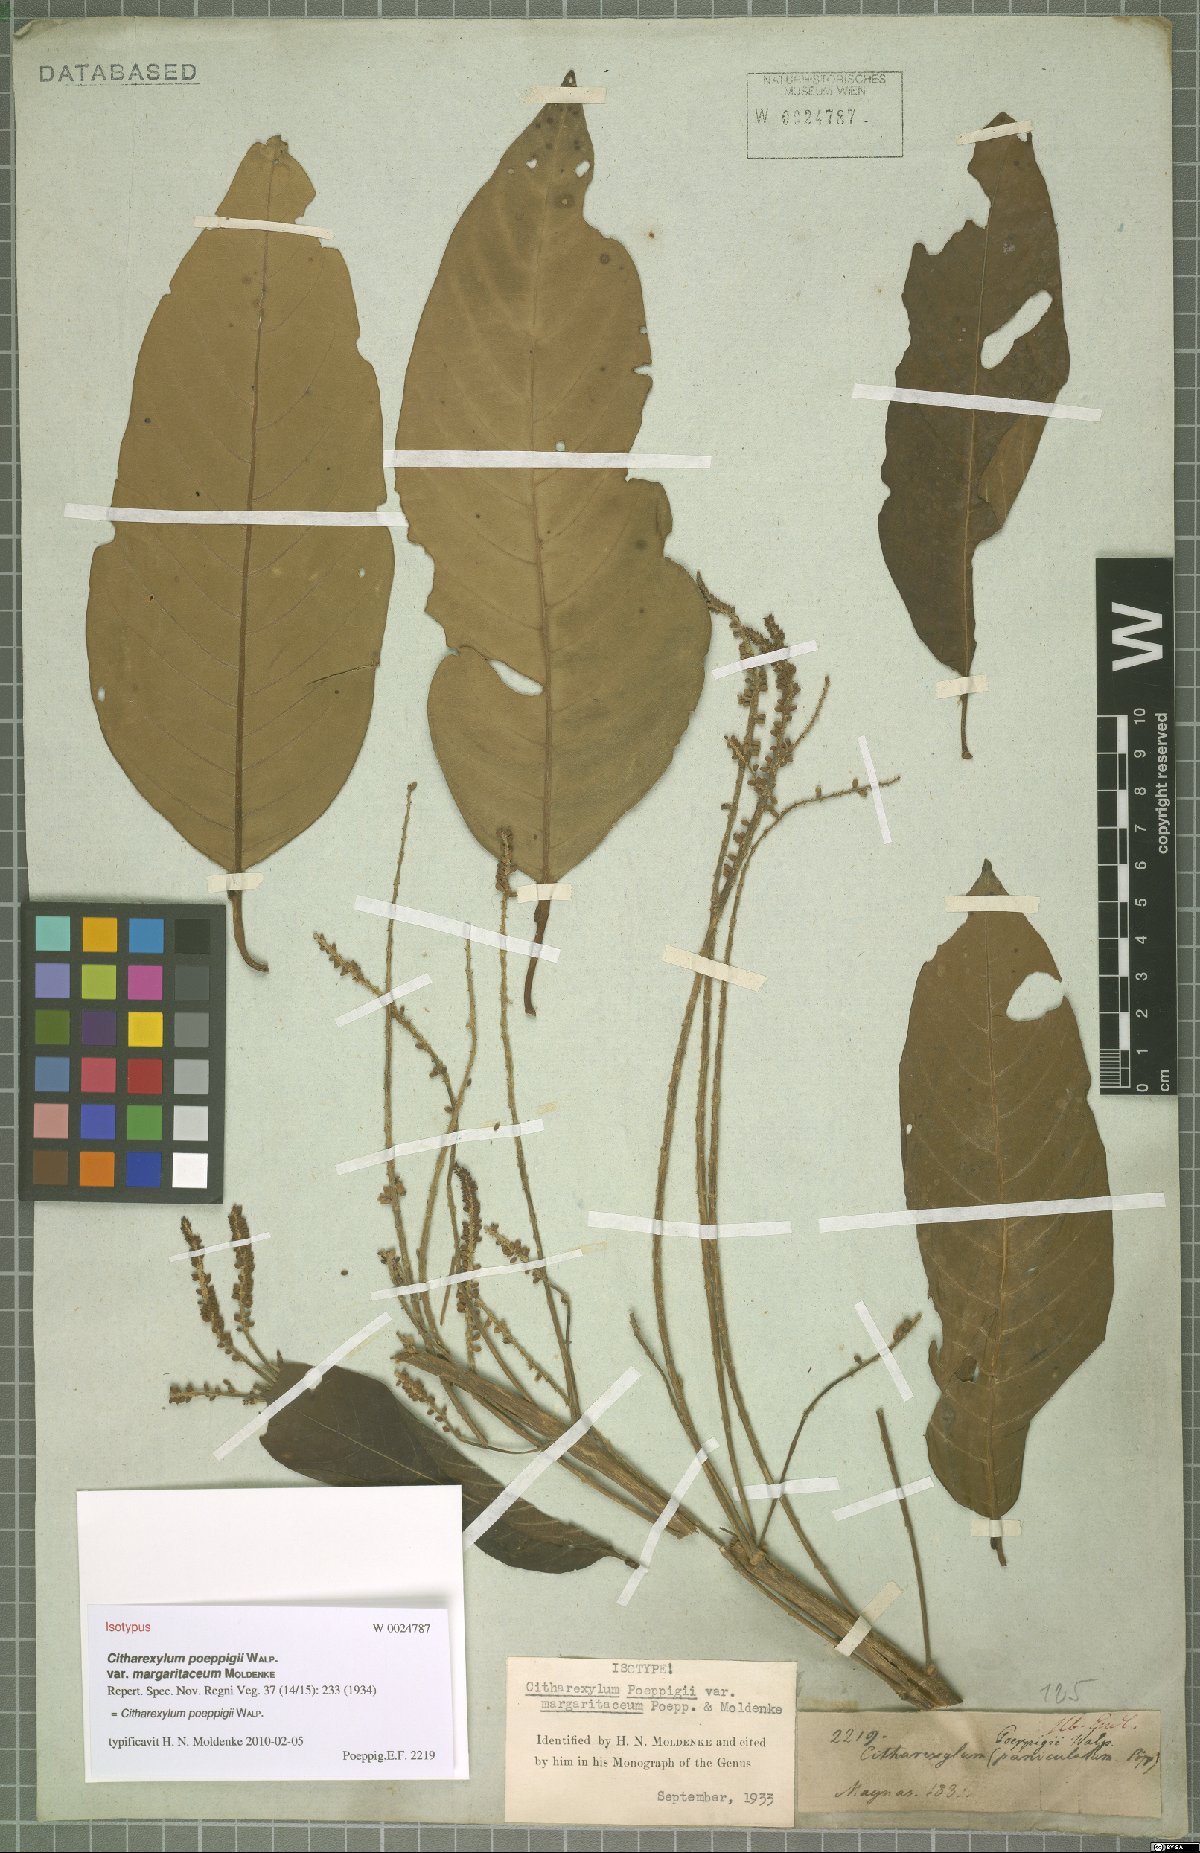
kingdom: Plantae
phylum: Tracheophyta
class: Magnoliopsida
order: Lamiales
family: Verbenaceae
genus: Citharexylum
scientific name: Citharexylum poeppigii
